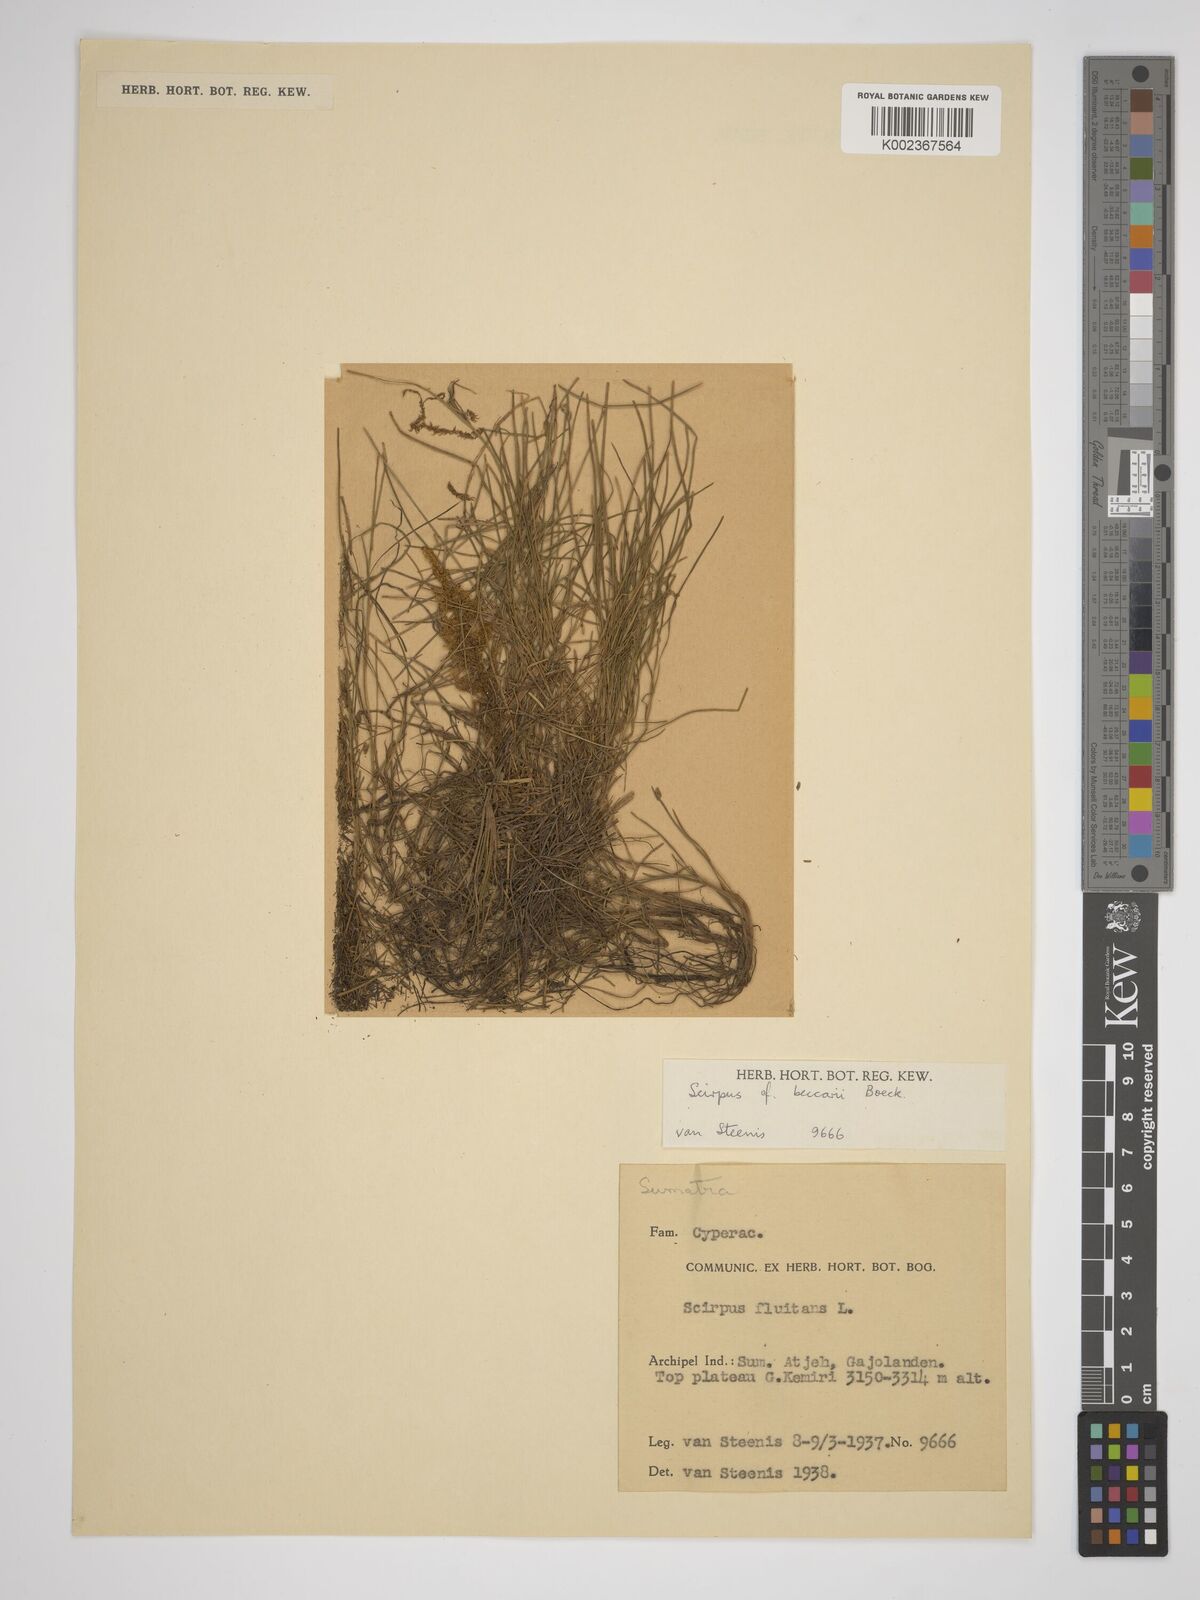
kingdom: Plantae
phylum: Tracheophyta
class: Liliopsida
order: Poales
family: Cyperaceae
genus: Isolepis
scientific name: Isolepis beccarii
